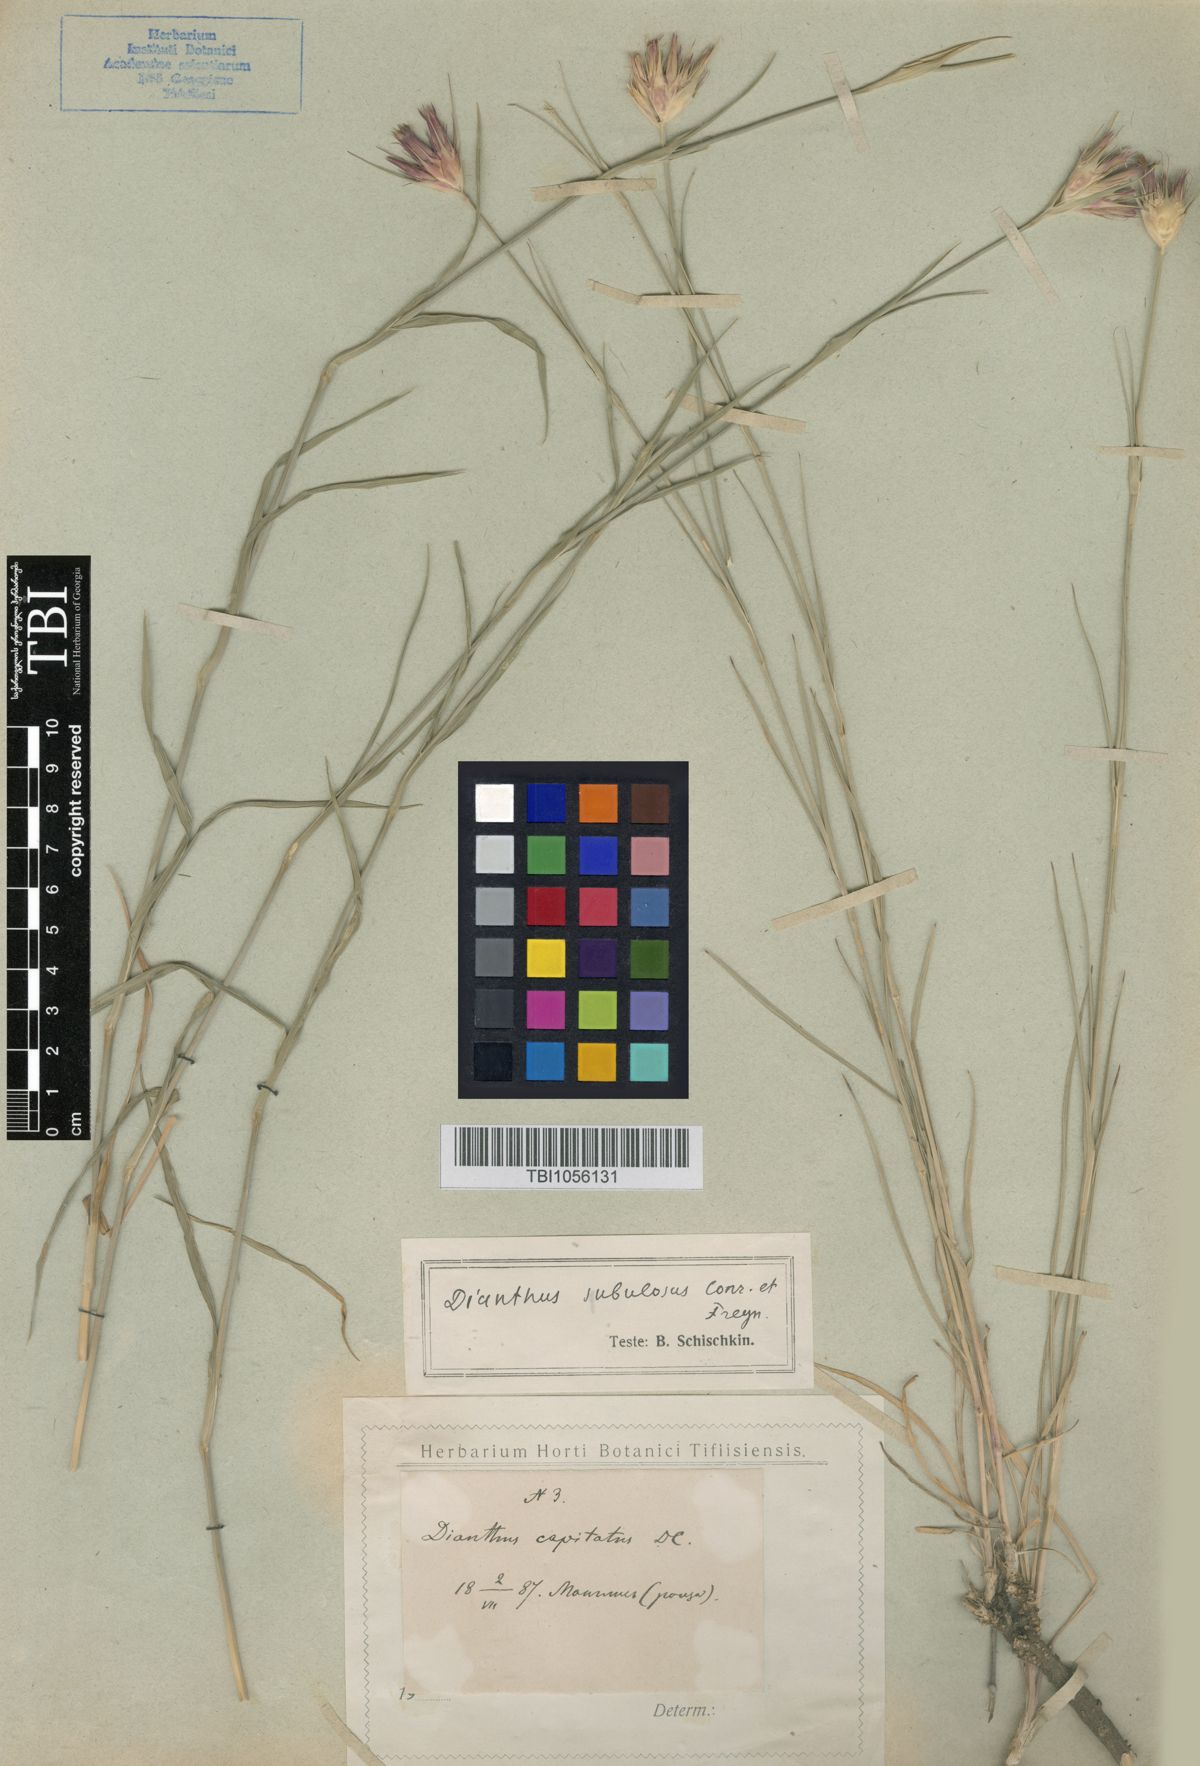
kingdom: Plantae
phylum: Tracheophyta
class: Magnoliopsida
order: Caryophyllales
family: Caryophyllaceae
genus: Dianthus
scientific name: Dianthus subulosus
